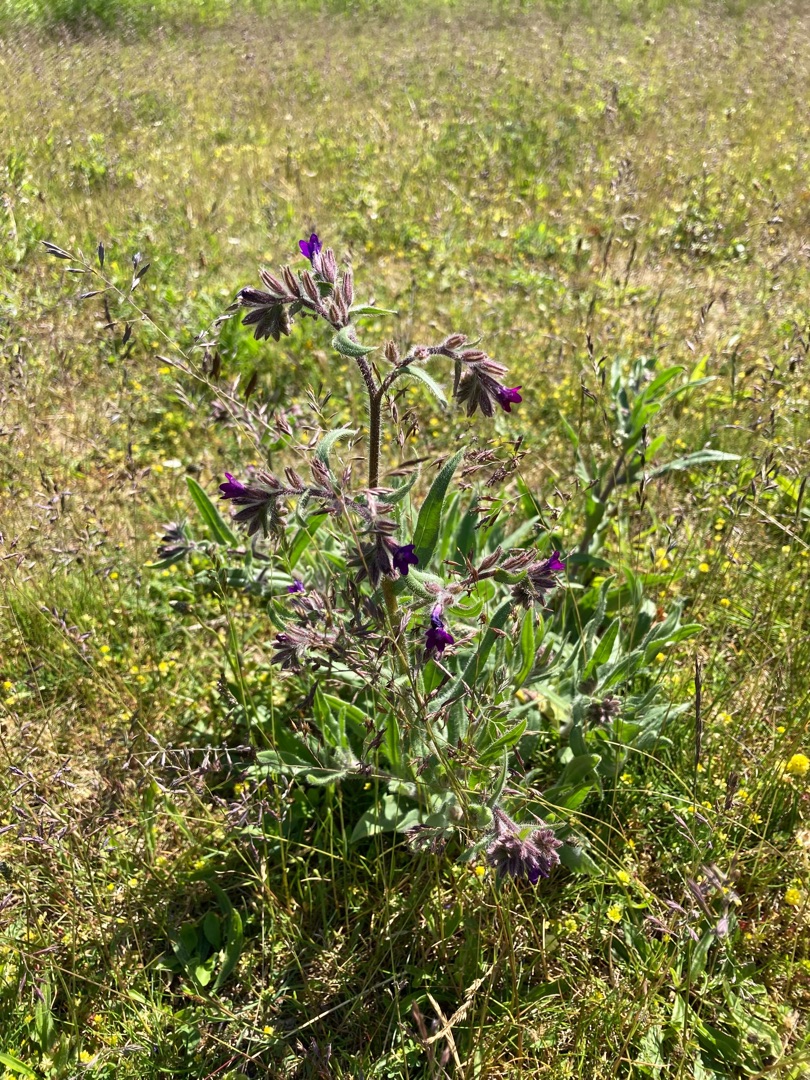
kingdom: Plantae
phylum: Tracheophyta
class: Magnoliopsida
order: Boraginales
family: Boraginaceae
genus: Anchusa
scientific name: Anchusa officinalis
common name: Læge-oksetunge
